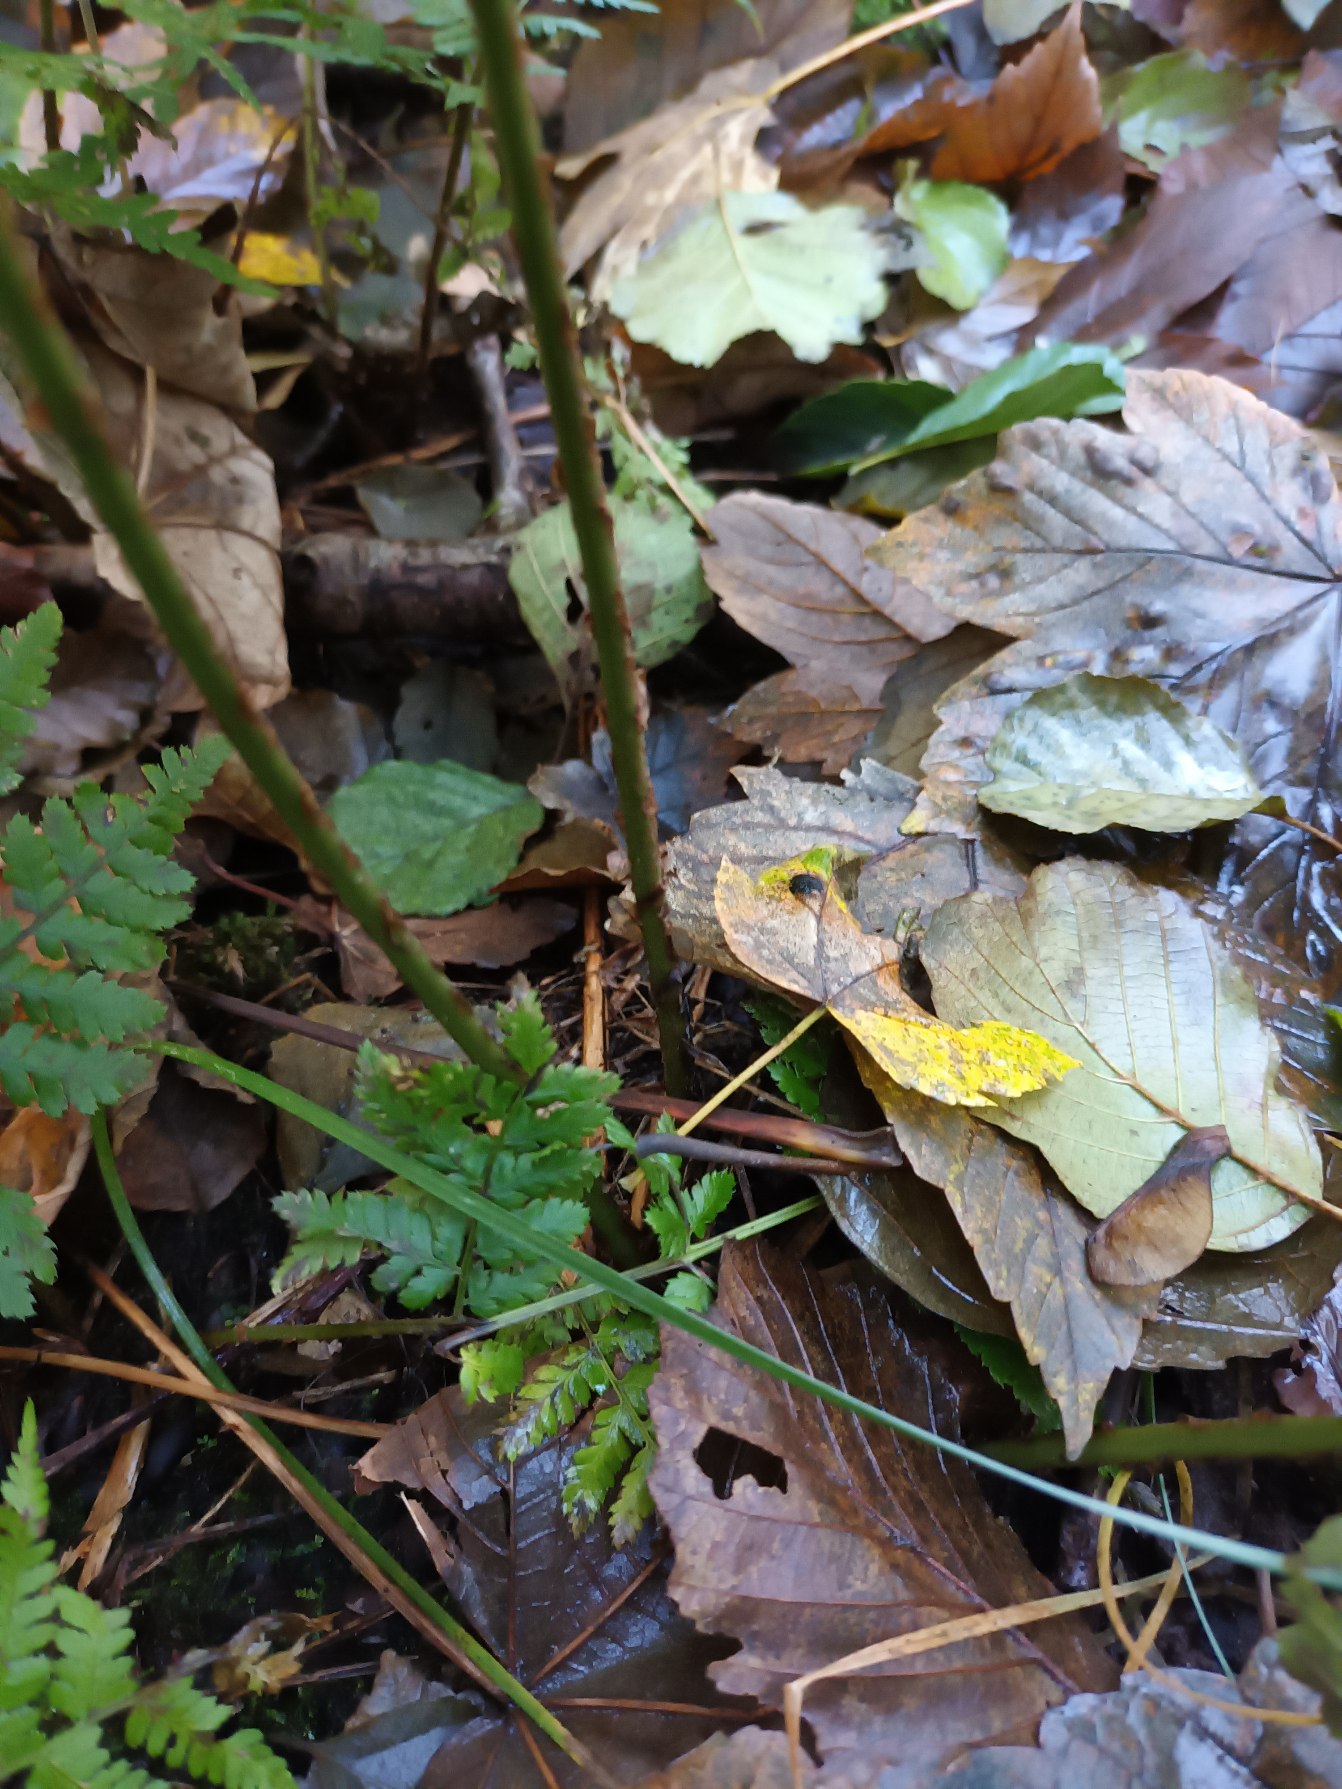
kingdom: Plantae
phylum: Tracheophyta
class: Polypodiopsida
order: Polypodiales
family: Dryopteridaceae
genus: Dryopteris
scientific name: Dryopteris dilatata
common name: Bredbladet mangeløv
